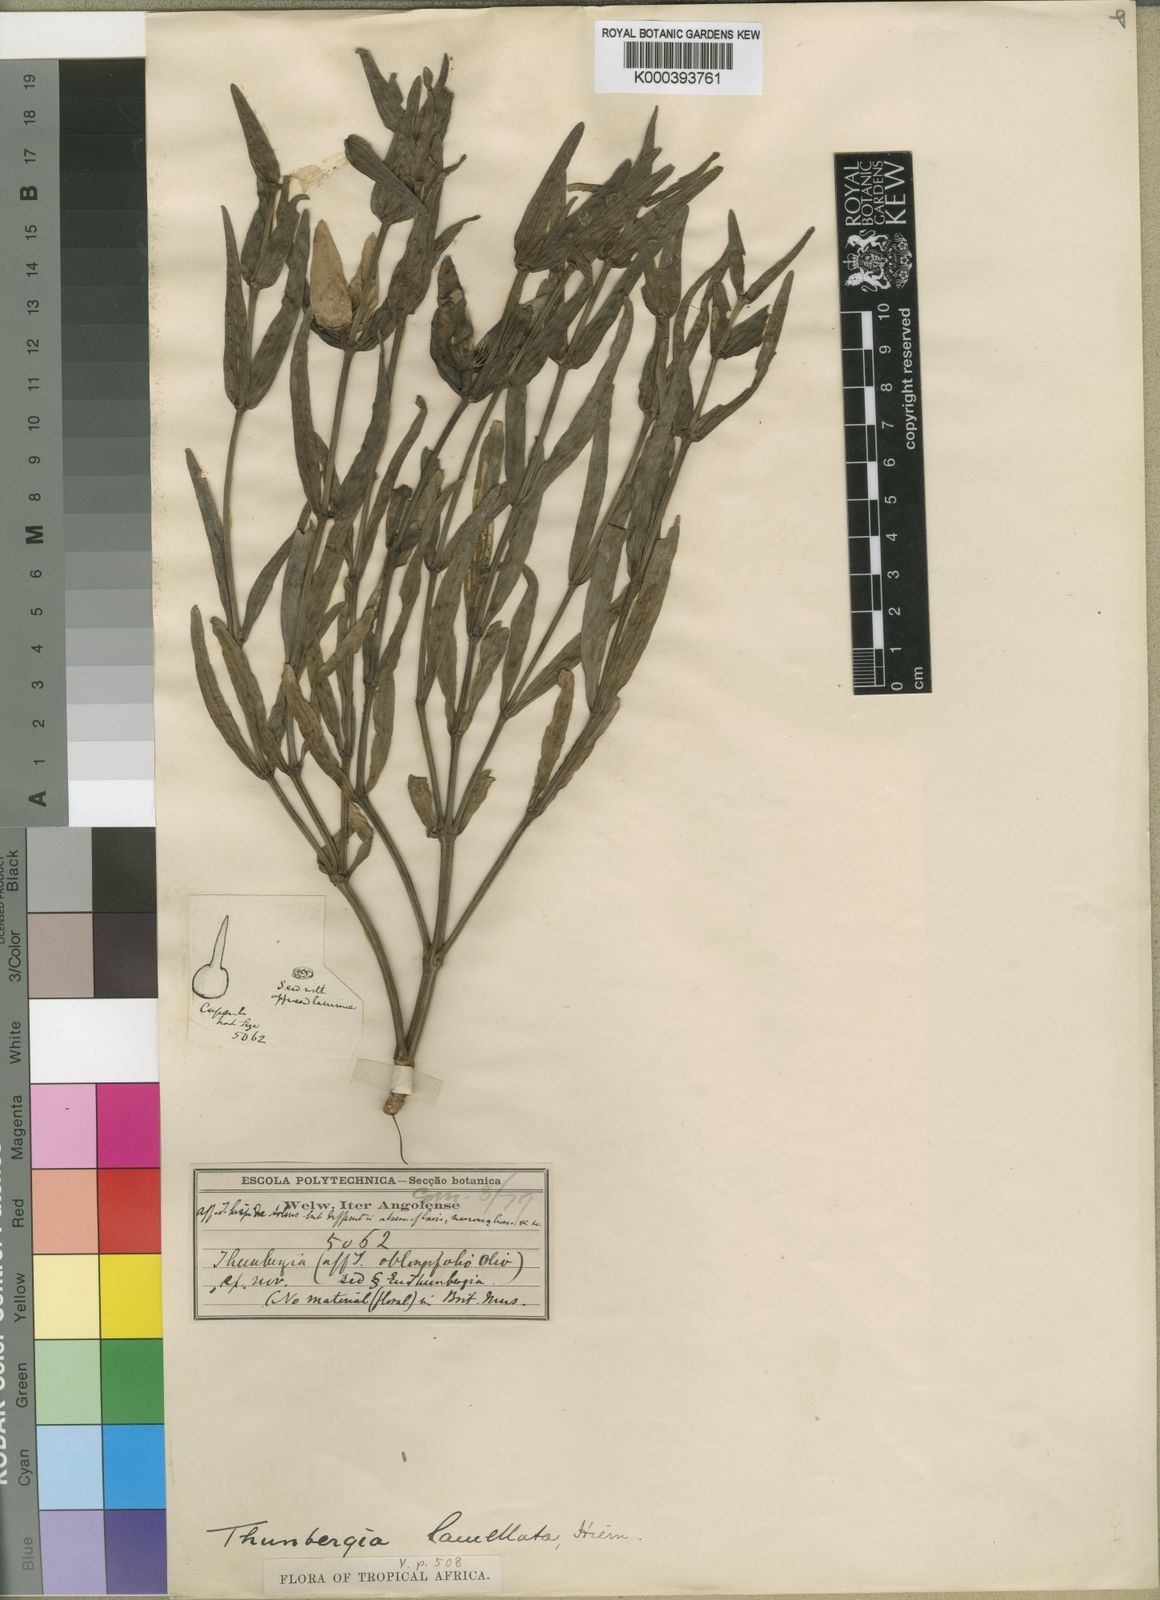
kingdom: Plantae
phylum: Tracheophyta
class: Magnoliopsida
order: Lamiales
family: Acanthaceae
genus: Thunbergia
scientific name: Thunbergia lamellata
